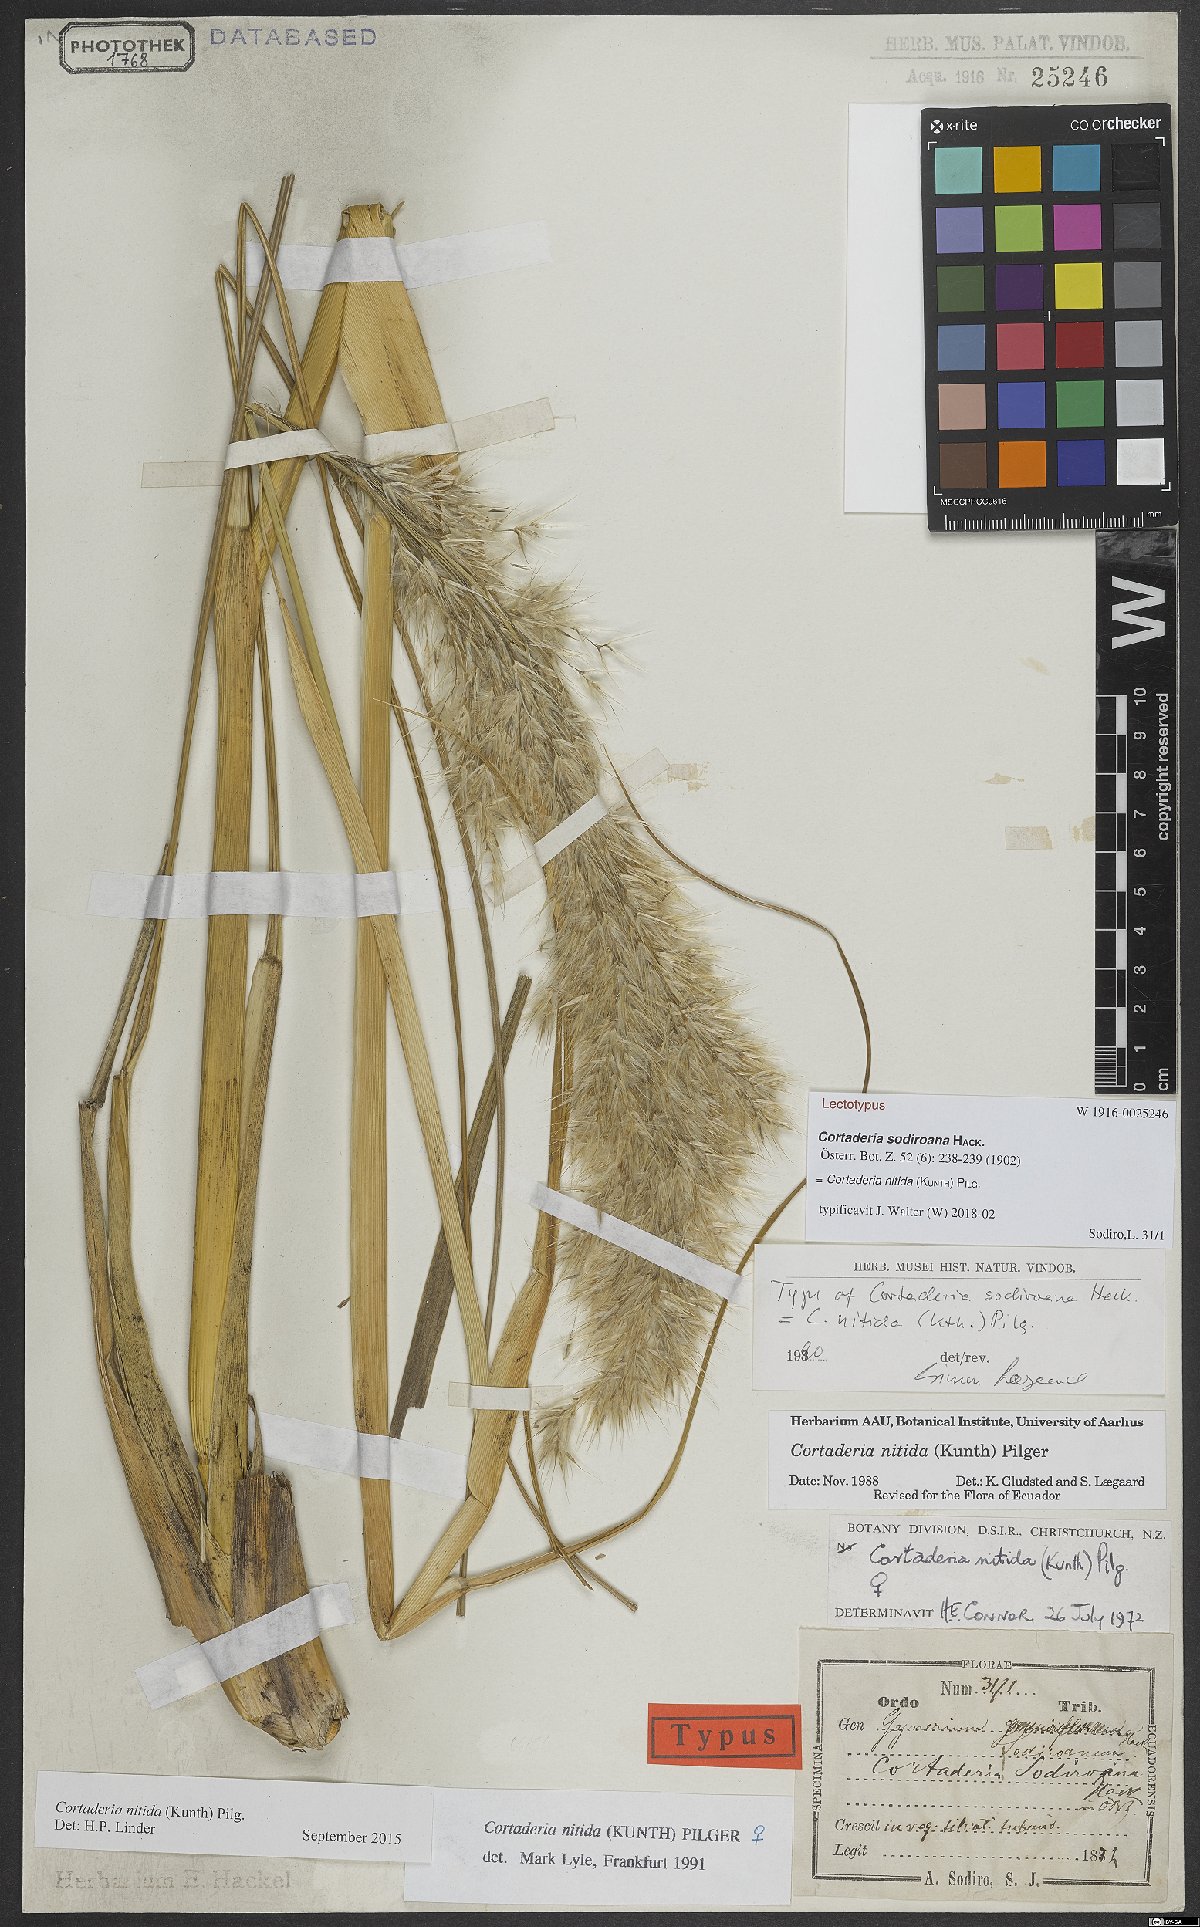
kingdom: Plantae
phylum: Tracheophyta
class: Liliopsida
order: Poales
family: Poaceae
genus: Cortaderia
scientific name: Cortaderia nitida
